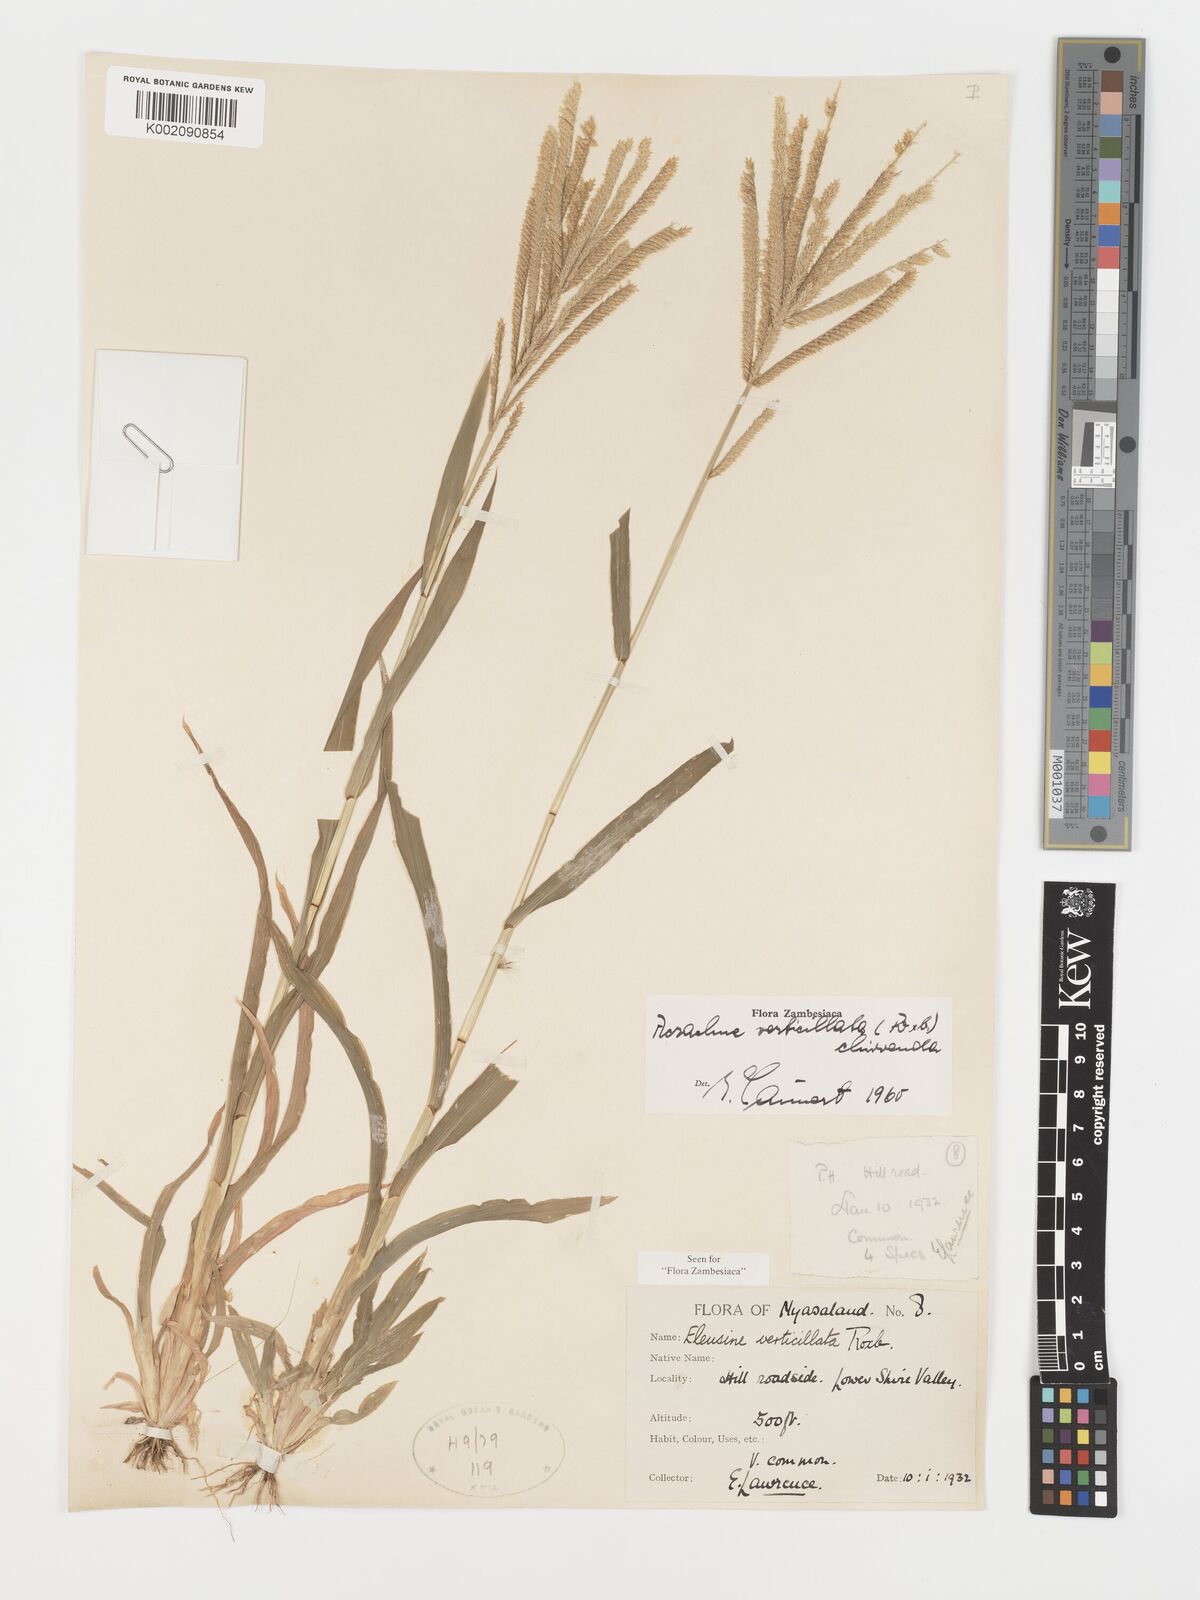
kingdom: Plantae
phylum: Tracheophyta
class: Liliopsida
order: Poales
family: Poaceae
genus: Acrachne
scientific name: Acrachne racemosa
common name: Goosegrass
